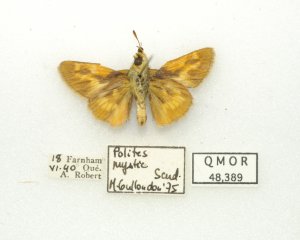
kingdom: Animalia
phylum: Arthropoda
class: Insecta
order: Lepidoptera
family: Hesperiidae
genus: Polites
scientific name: Polites
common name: Long Dash Skipper
